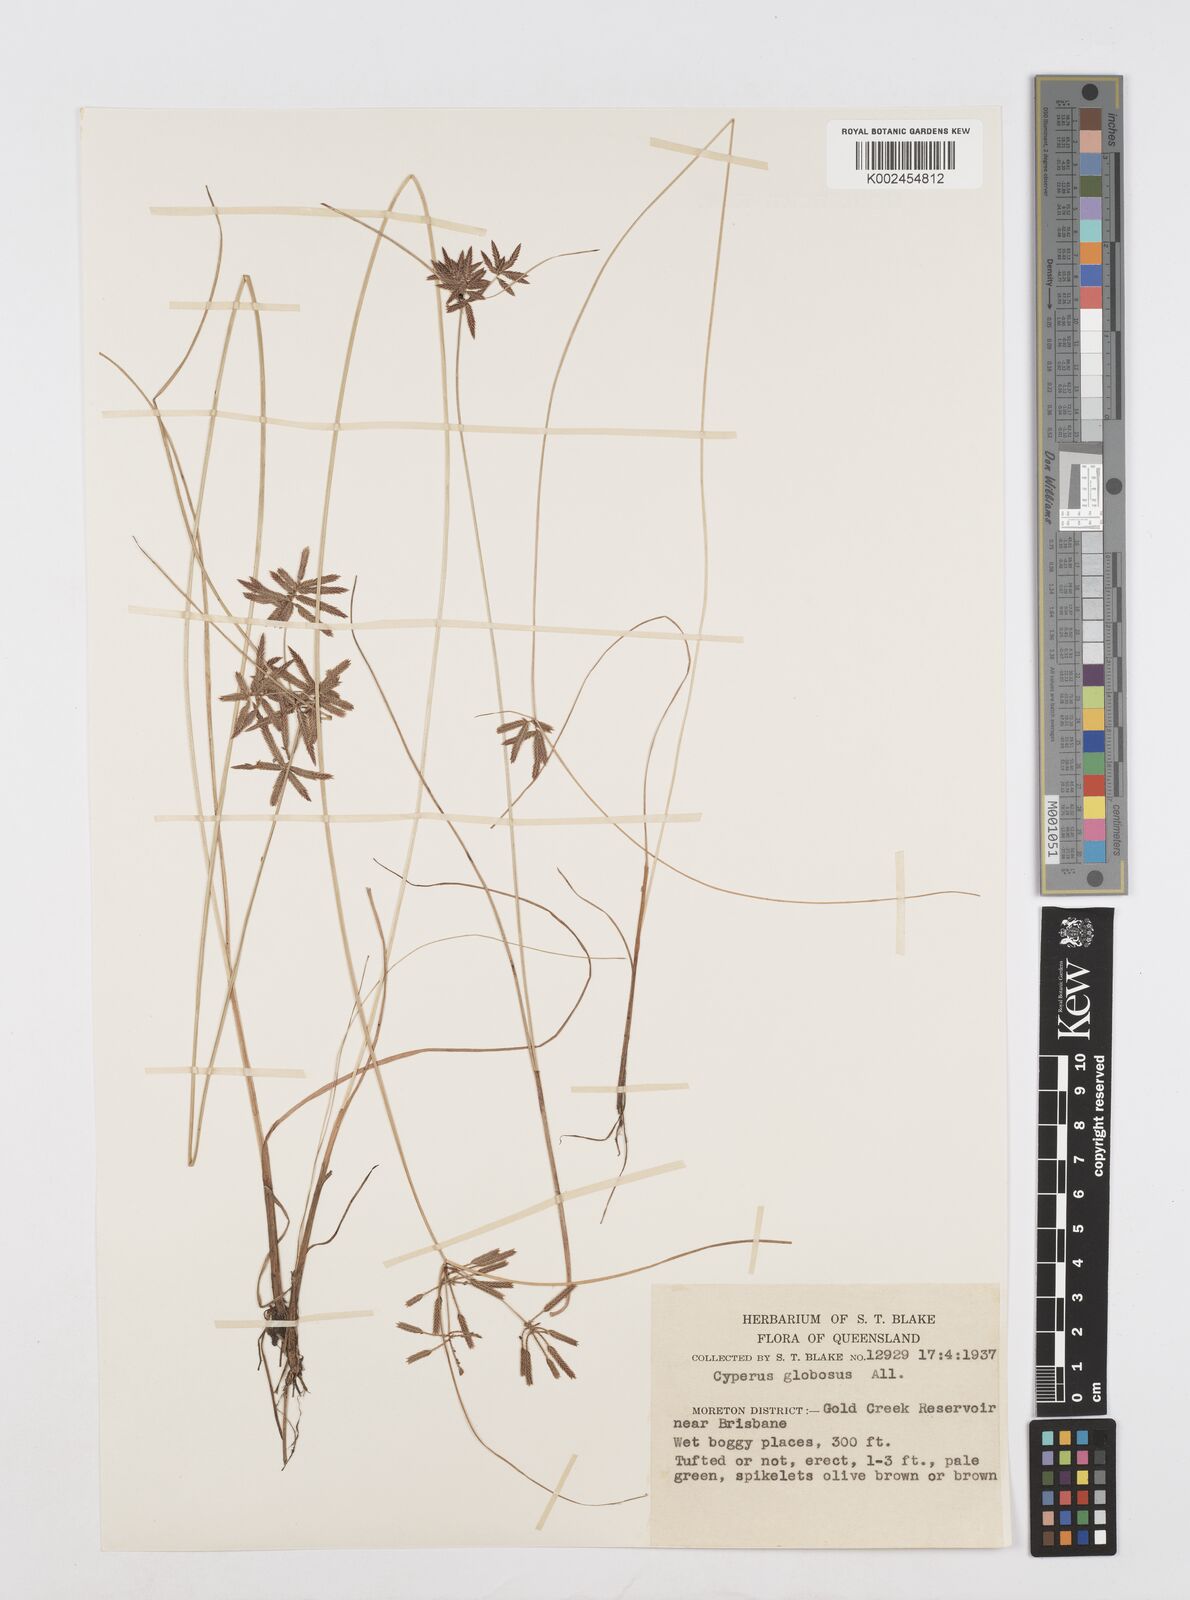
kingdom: Plantae
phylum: Tracheophyta
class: Liliopsida
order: Poales
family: Cyperaceae
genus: Cyperus
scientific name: Cyperus flavidus
